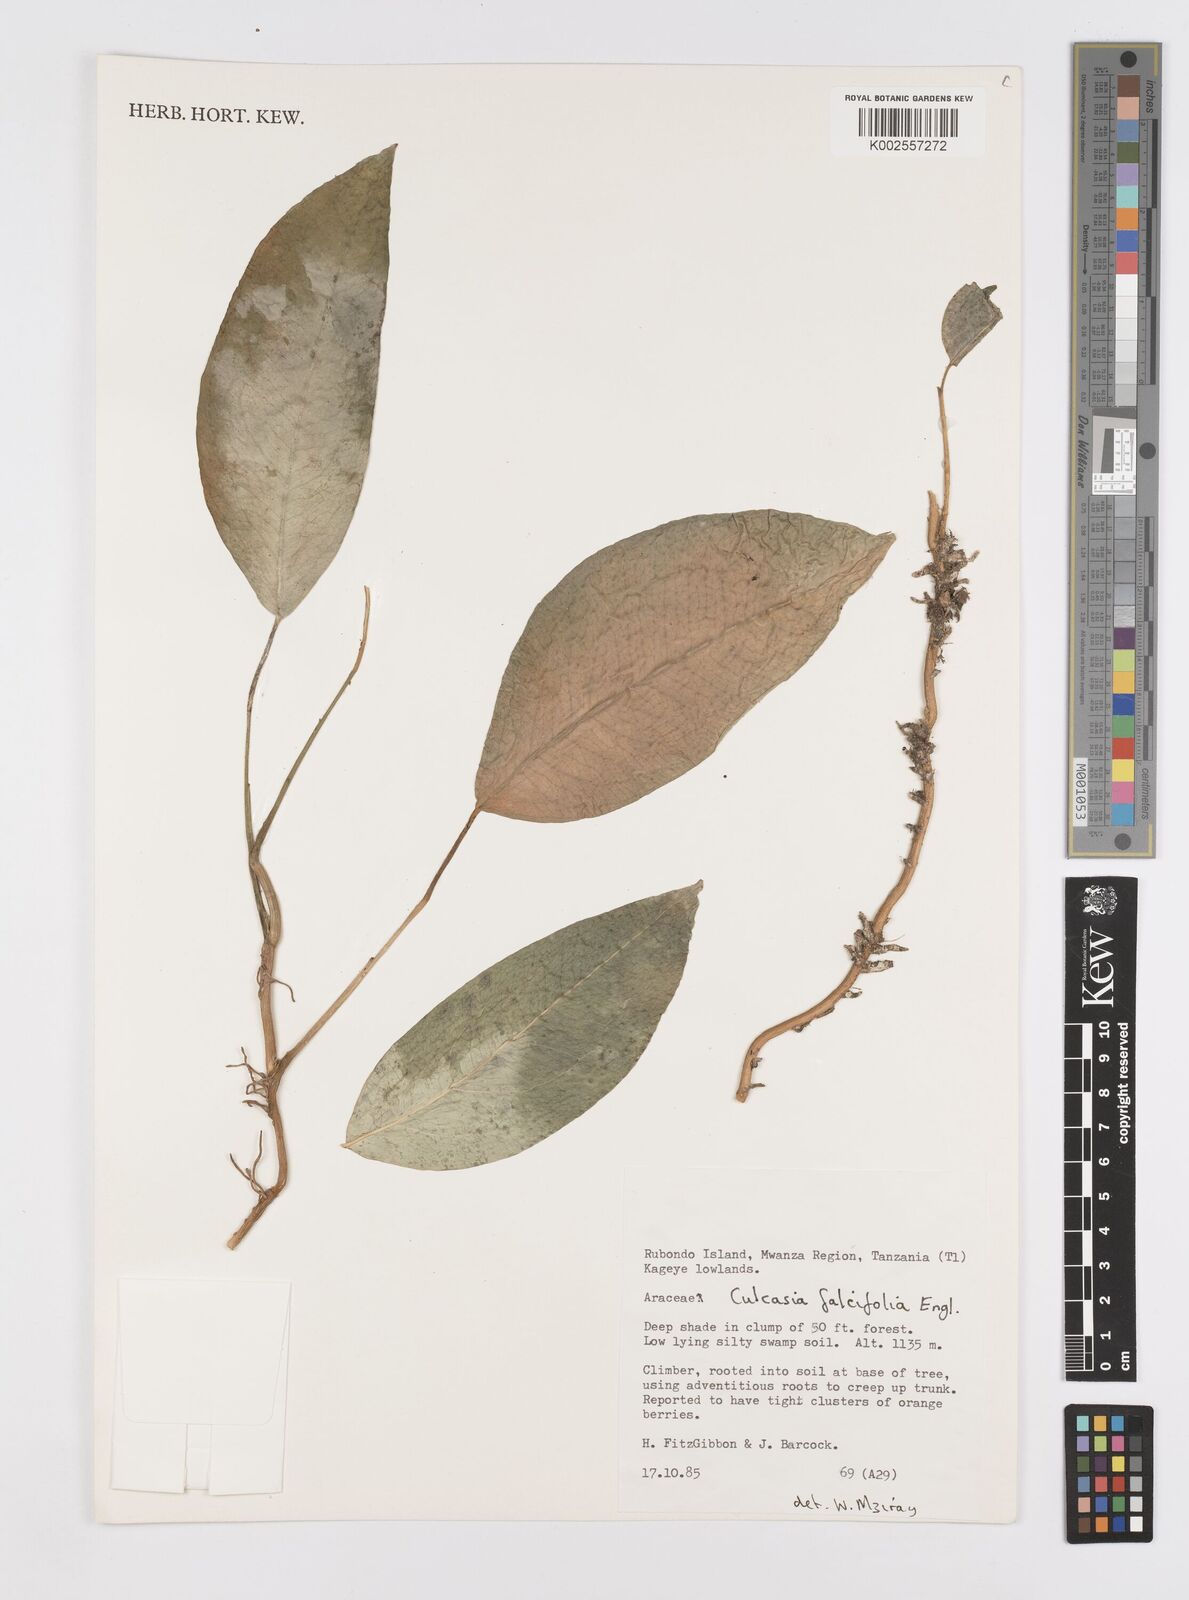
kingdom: Plantae
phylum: Tracheophyta
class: Liliopsida
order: Alismatales
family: Araceae
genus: Culcasia
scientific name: Culcasia falcifolia
